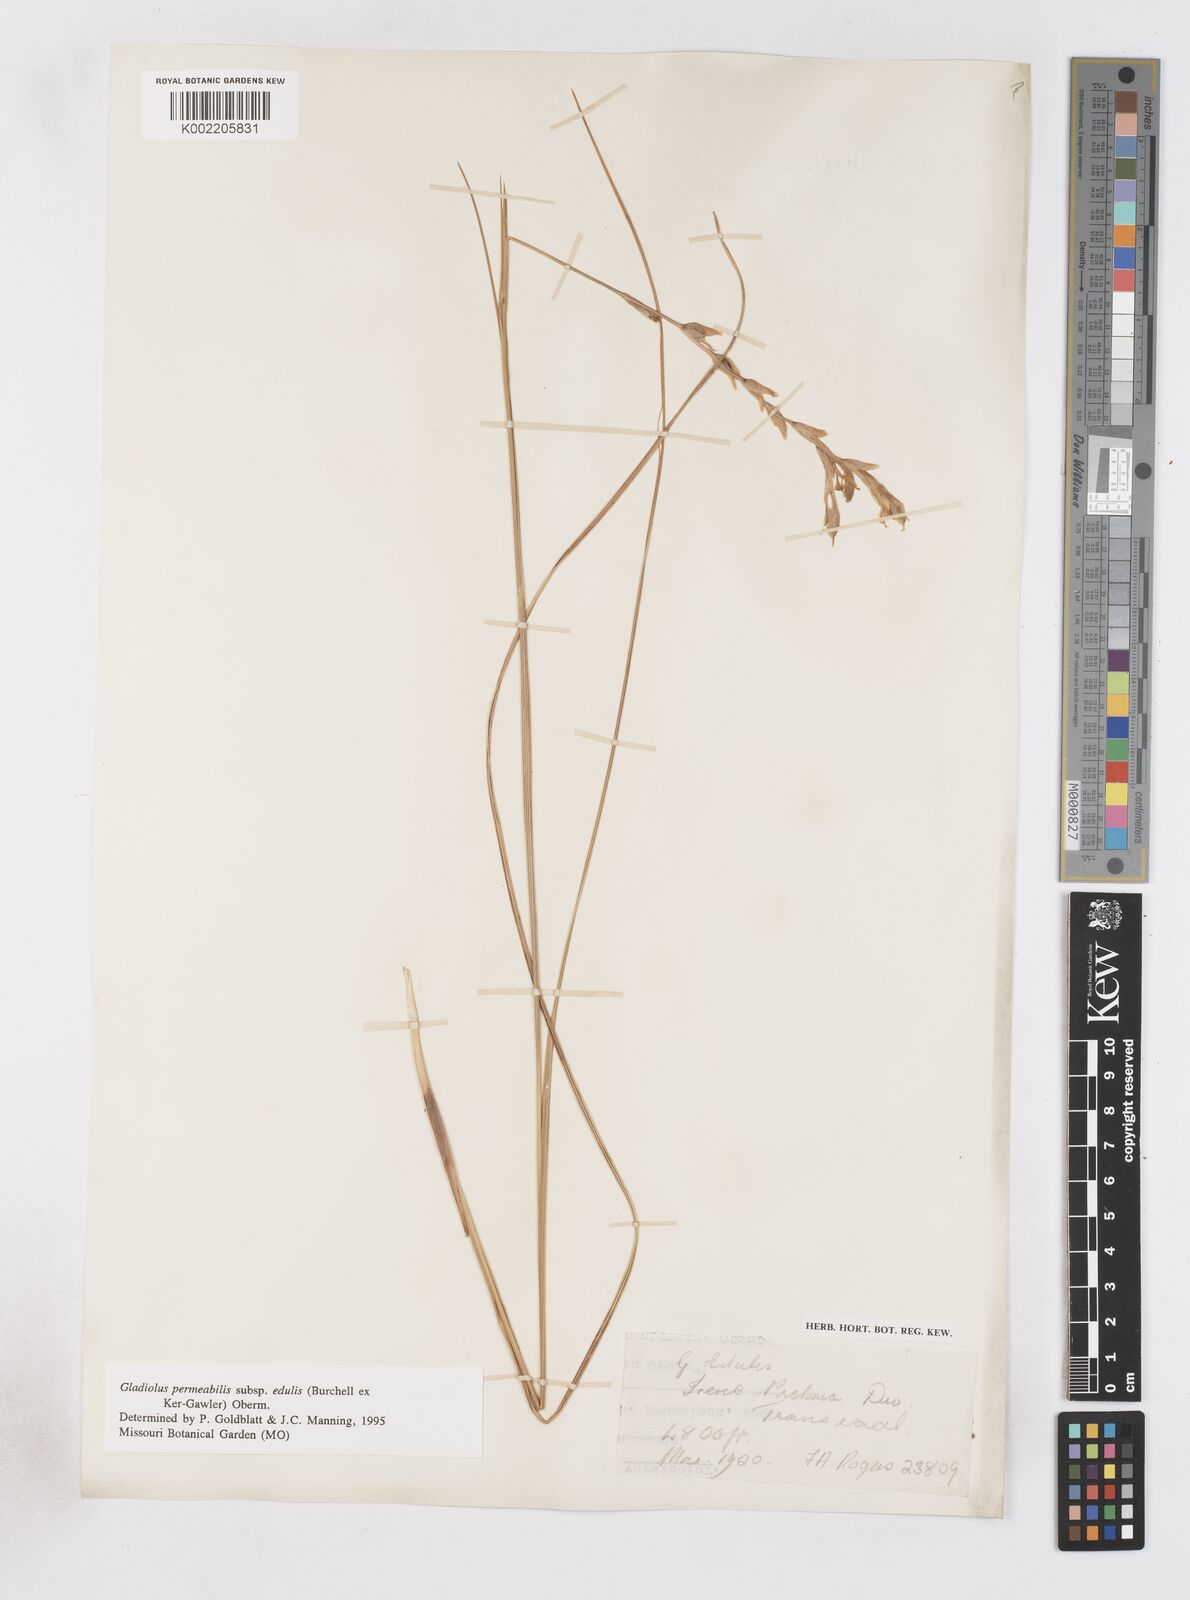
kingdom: Plantae
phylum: Tracheophyta
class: Liliopsida
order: Asparagales
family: Iridaceae
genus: Gladiolus
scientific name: Gladiolus permeabilis
